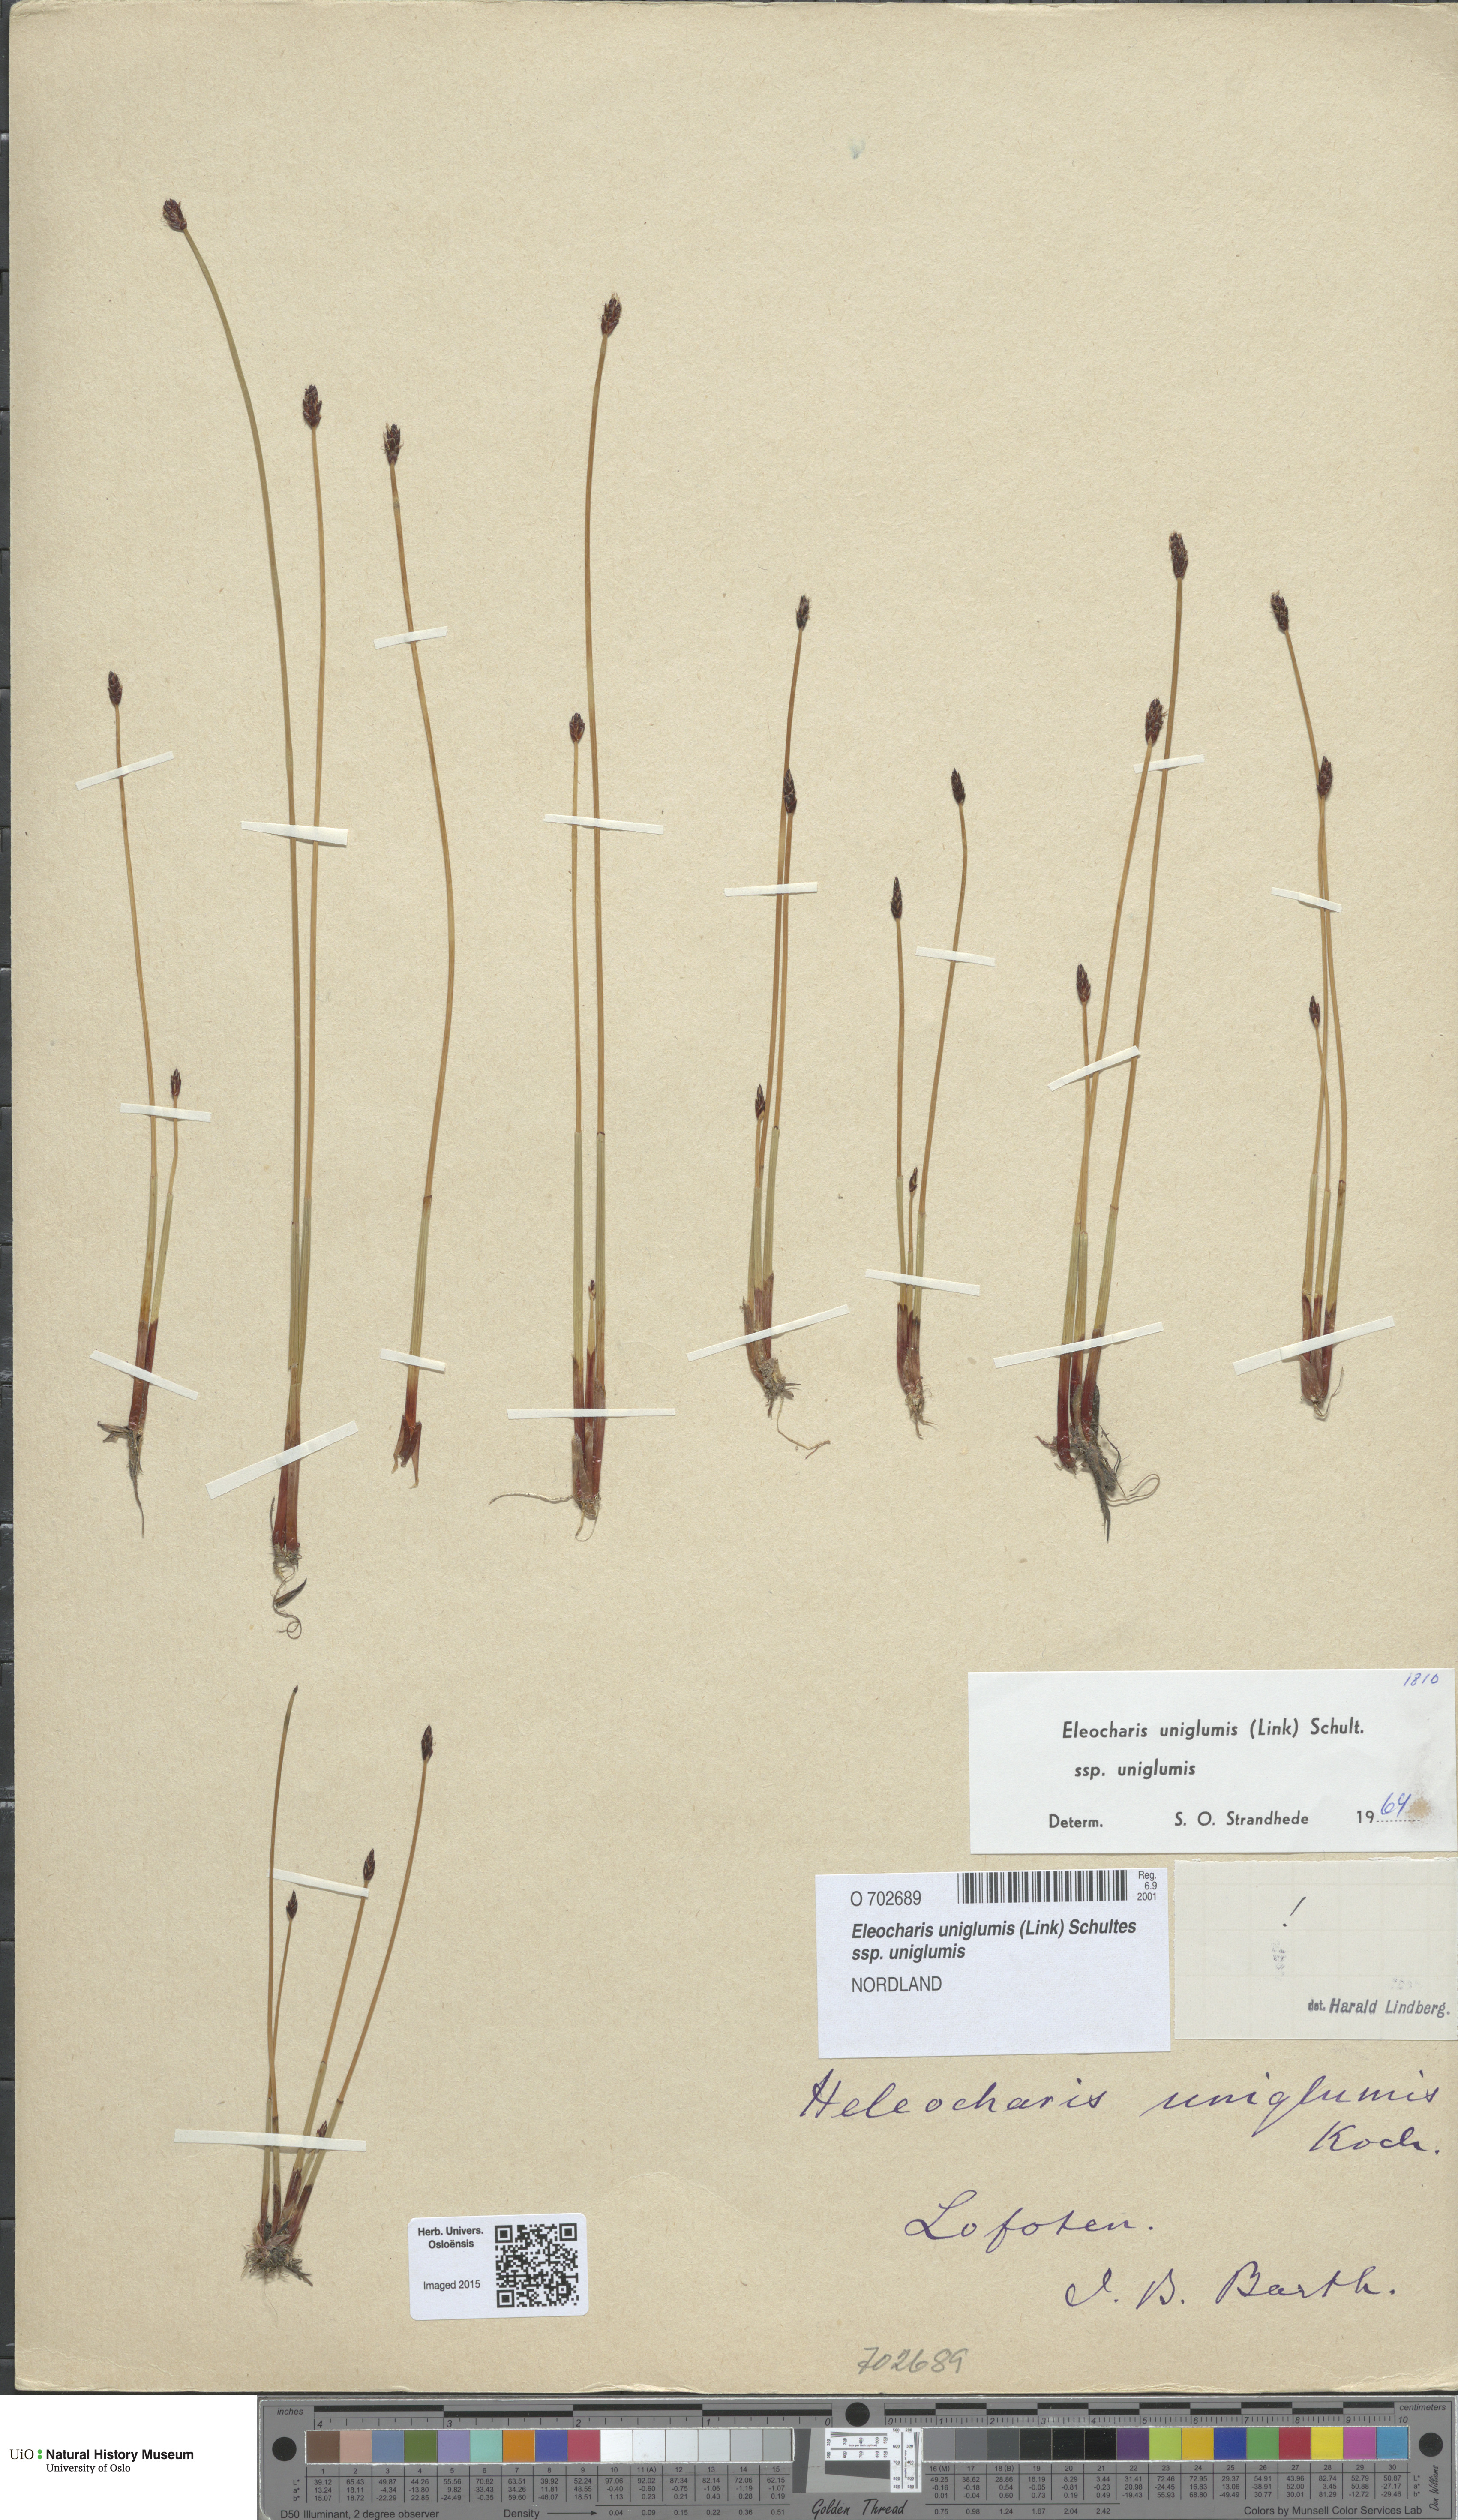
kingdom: Plantae
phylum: Tracheophyta
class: Liliopsida
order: Poales
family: Cyperaceae
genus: Eleocharis
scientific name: Eleocharis uniglumis
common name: Slender spike-rush
